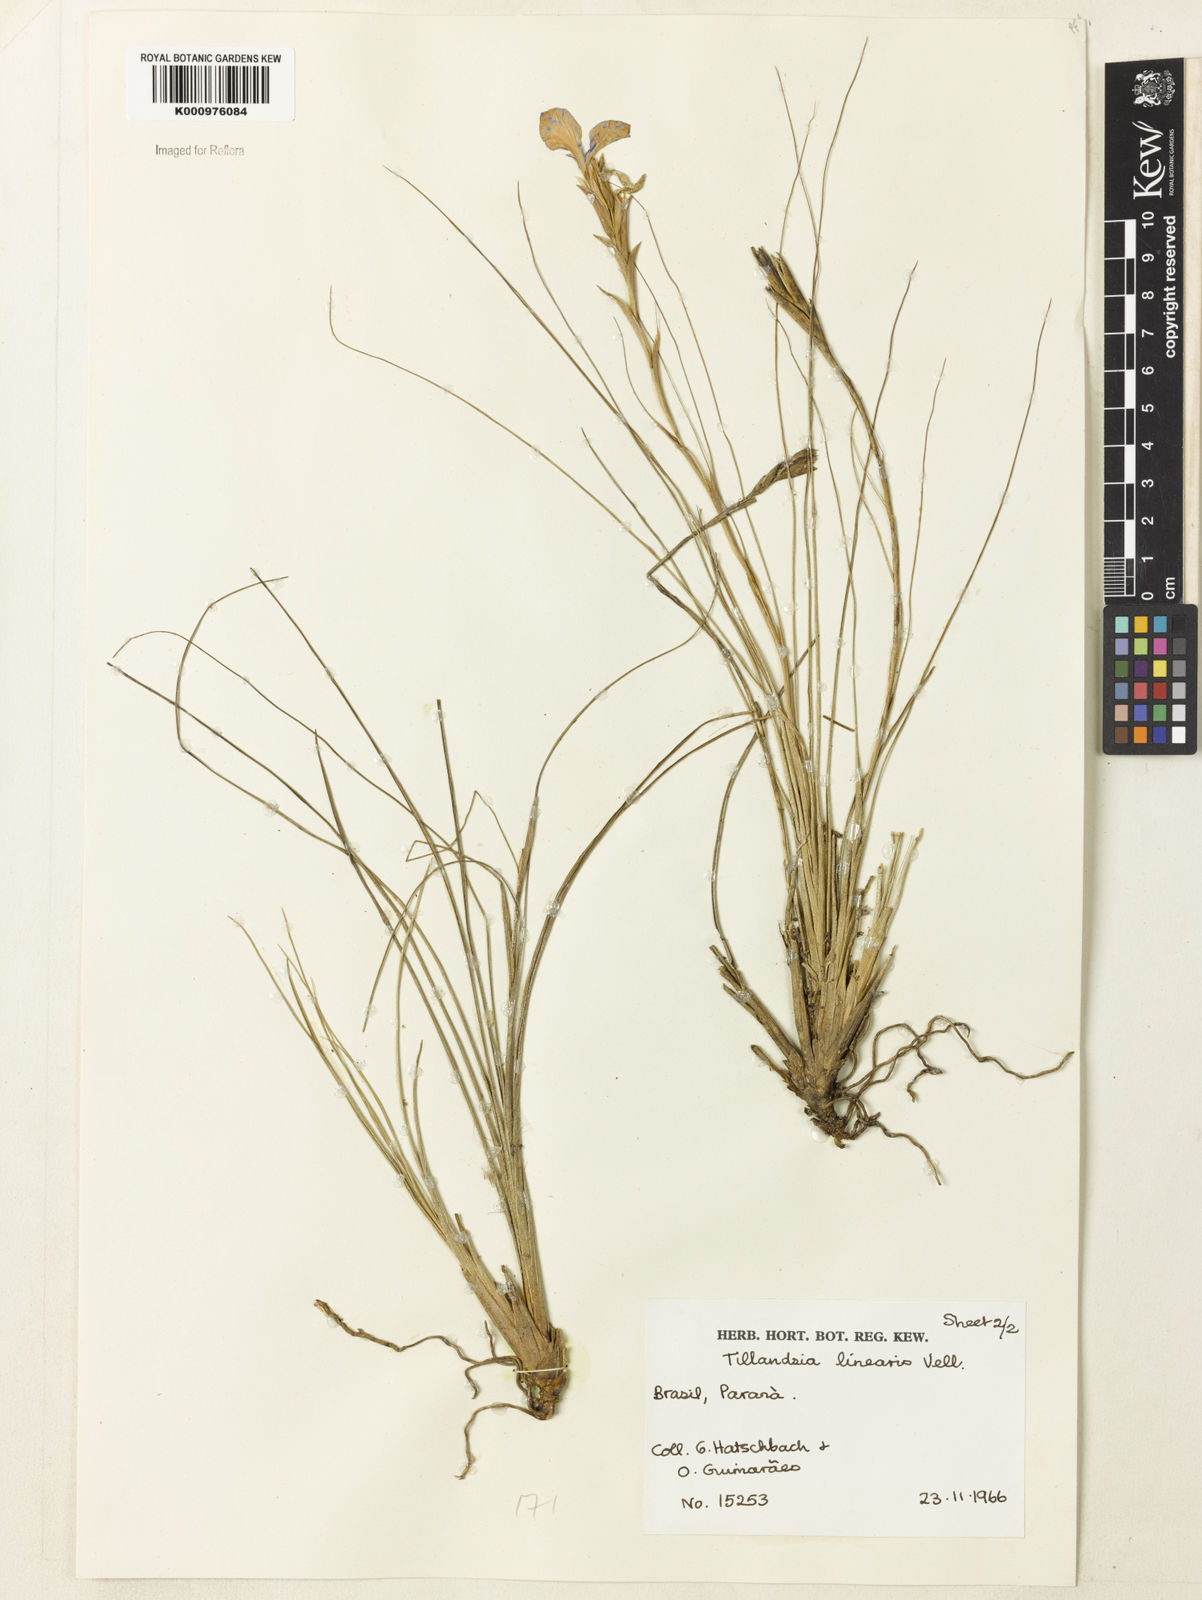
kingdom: Plantae
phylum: Tracheophyta
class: Liliopsida
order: Poales
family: Bromeliaceae
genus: Tillandsia
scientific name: Tillandsia linearis
